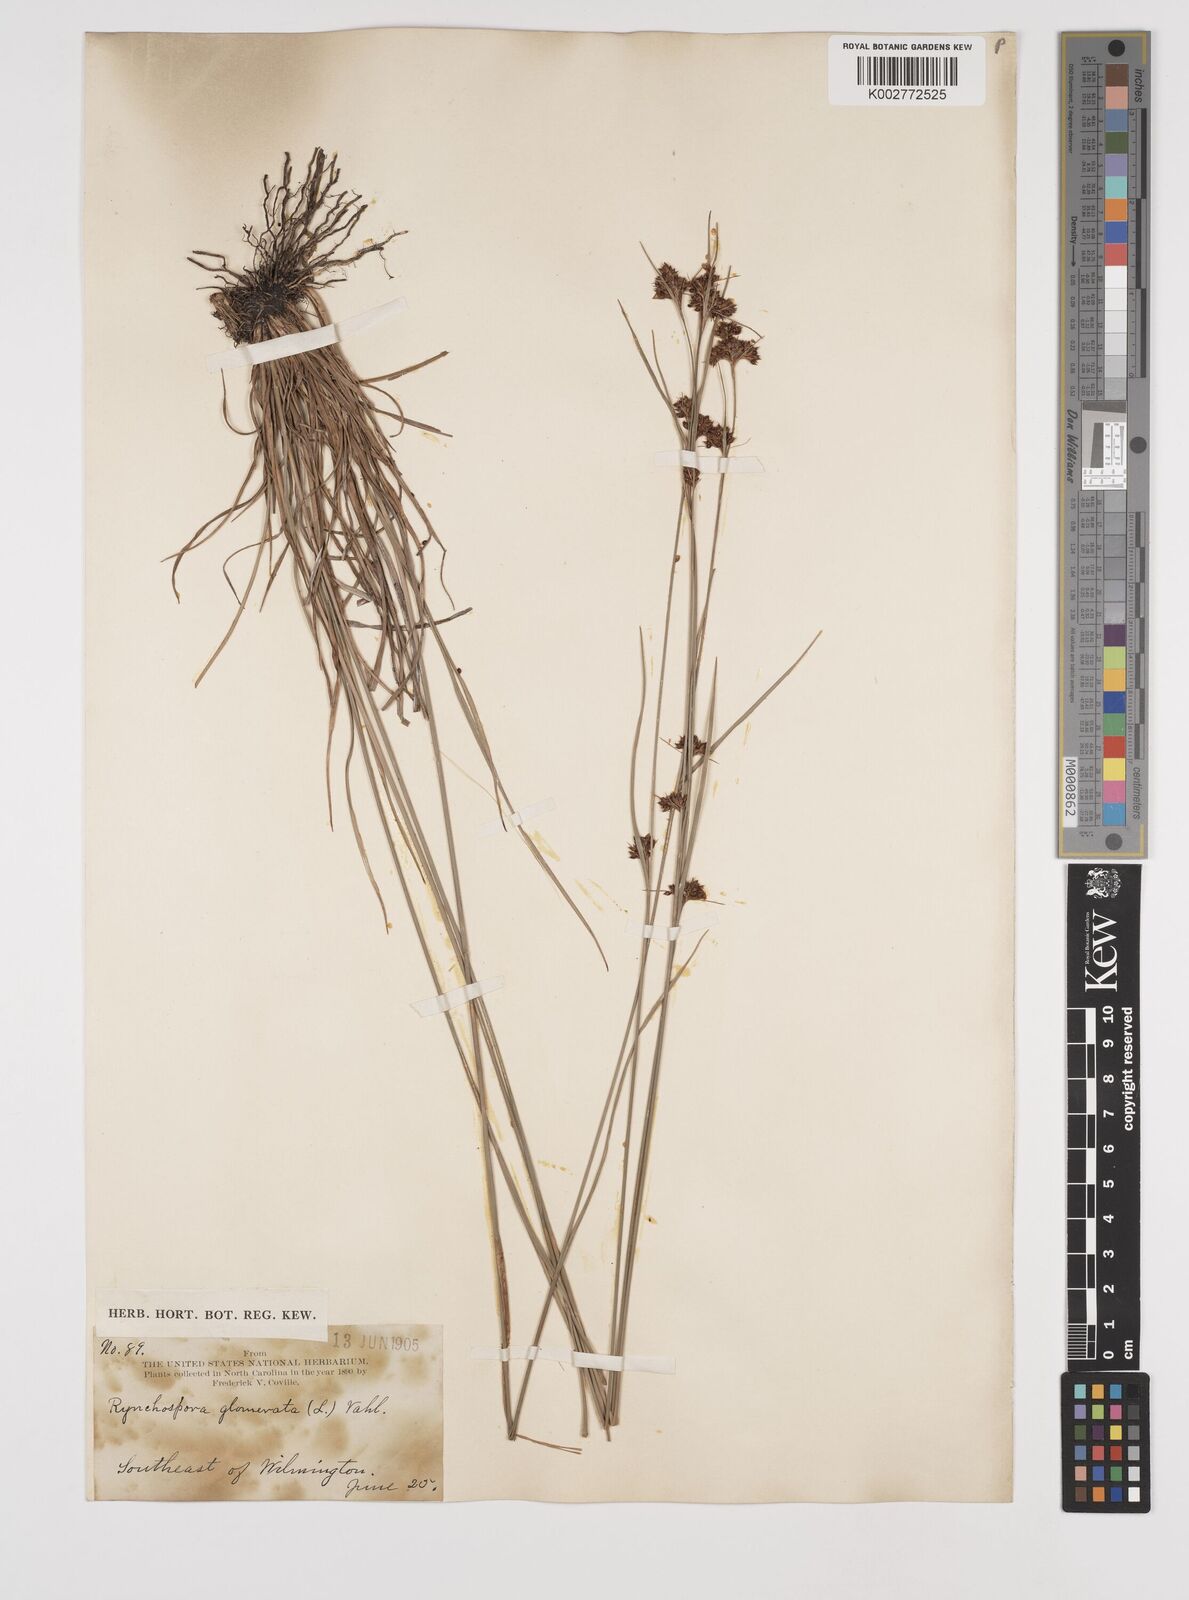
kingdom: Plantae
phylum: Tracheophyta
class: Liliopsida
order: Poales
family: Cyperaceae
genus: Rhynchospora
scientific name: Rhynchospora glomerata
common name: Cluster beak sedge
